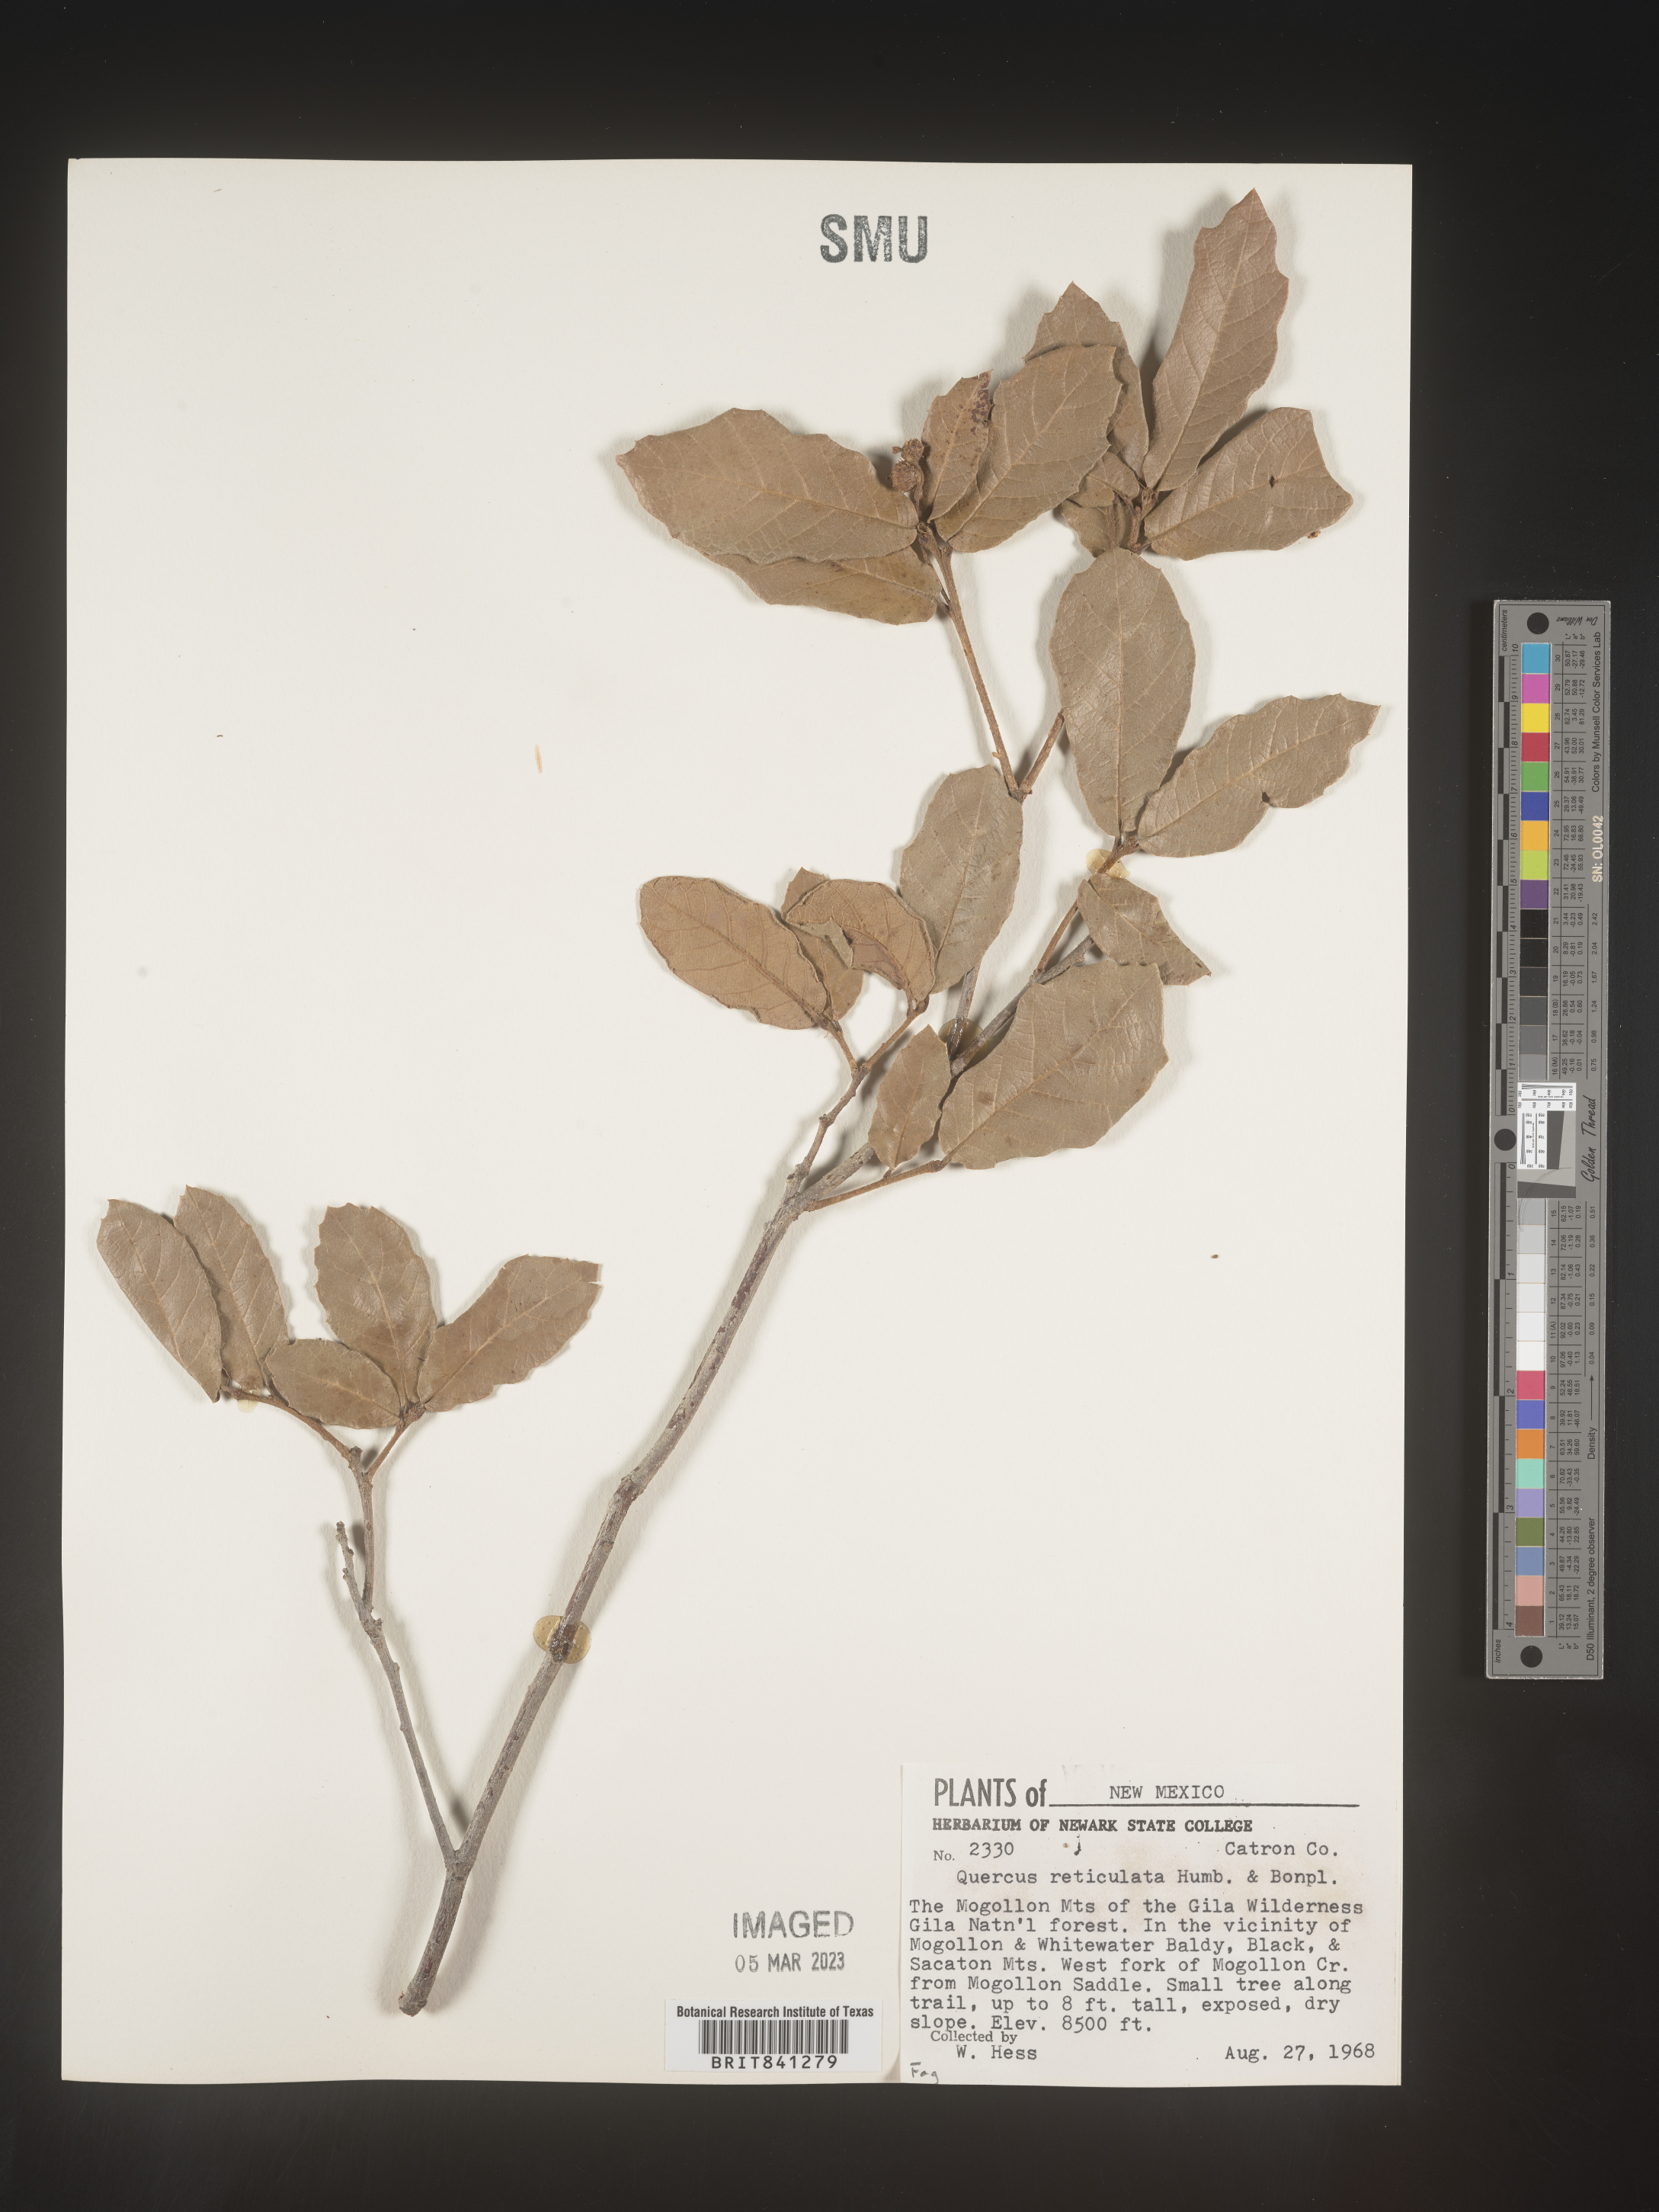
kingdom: Plantae
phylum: Tracheophyta
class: Magnoliopsida
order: Fagales
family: Fagaceae
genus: Quercus
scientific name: Quercus rugosa
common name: Netleaf oak
